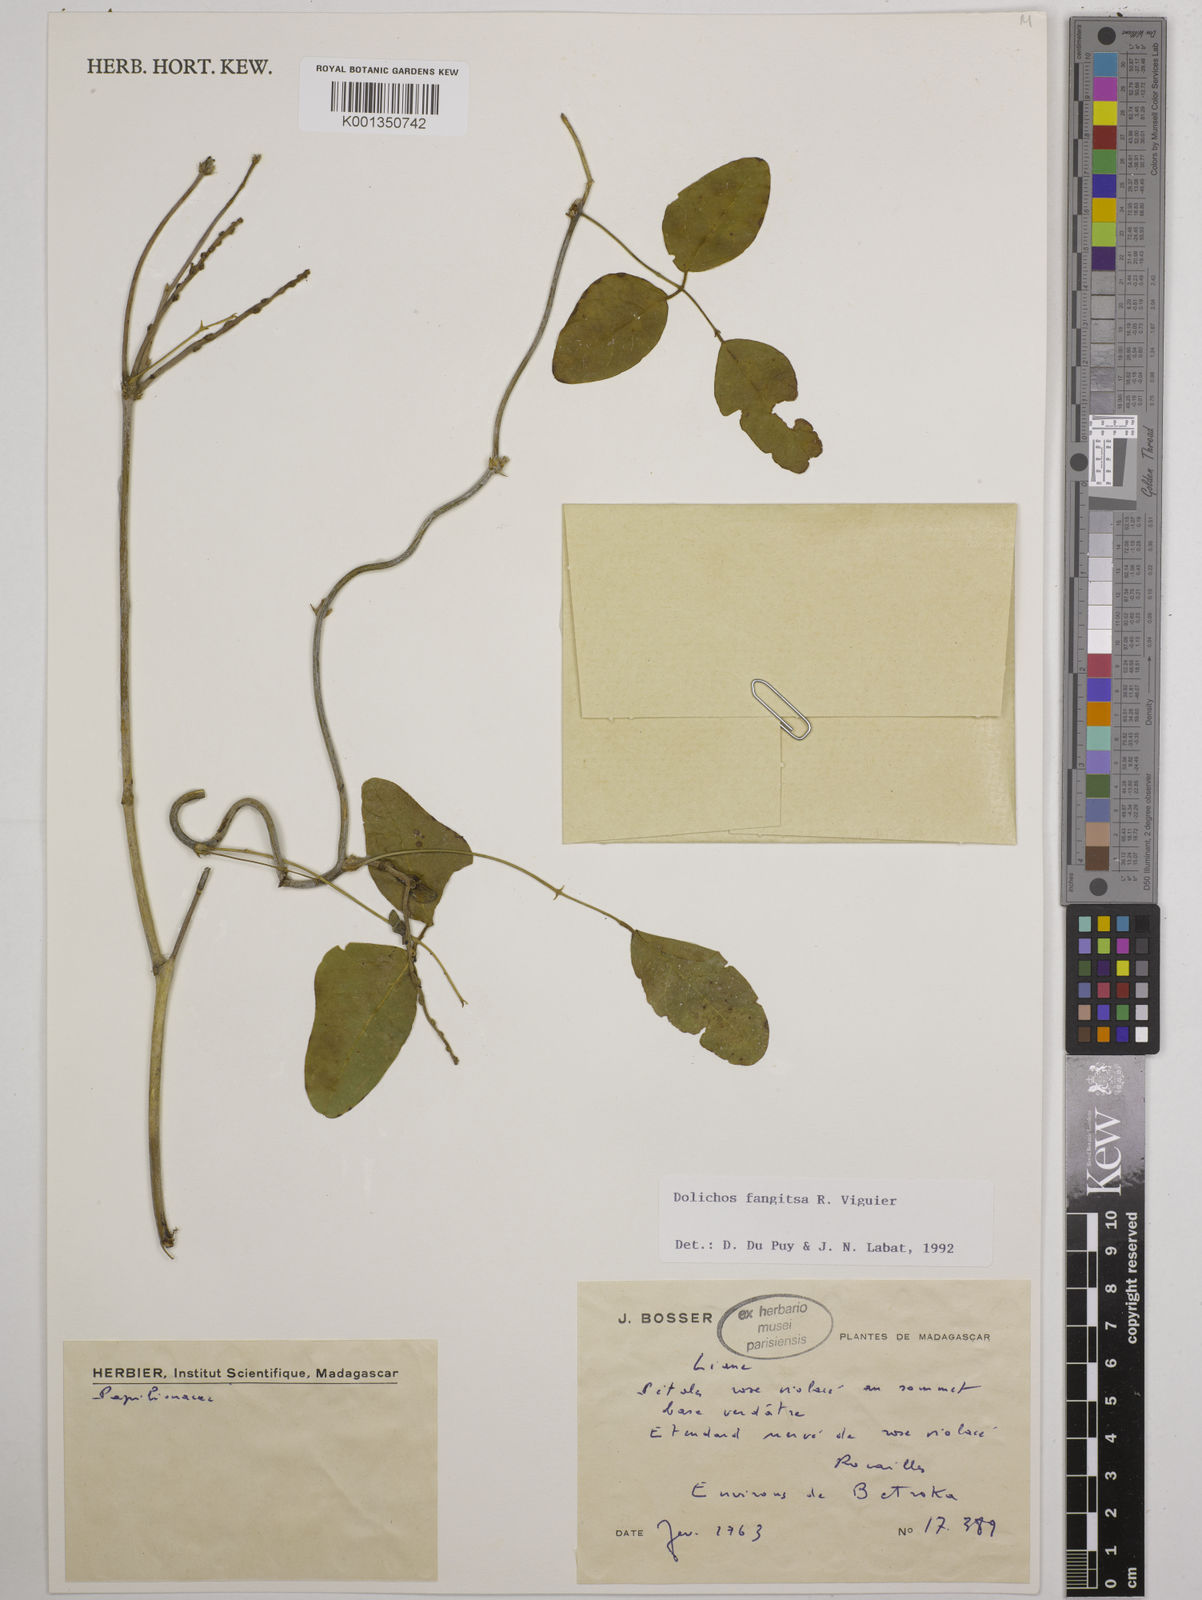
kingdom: Plantae
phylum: Tracheophyta
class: Magnoliopsida
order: Fabales
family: Fabaceae
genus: Dolichos
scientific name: Dolichos fangitsa
